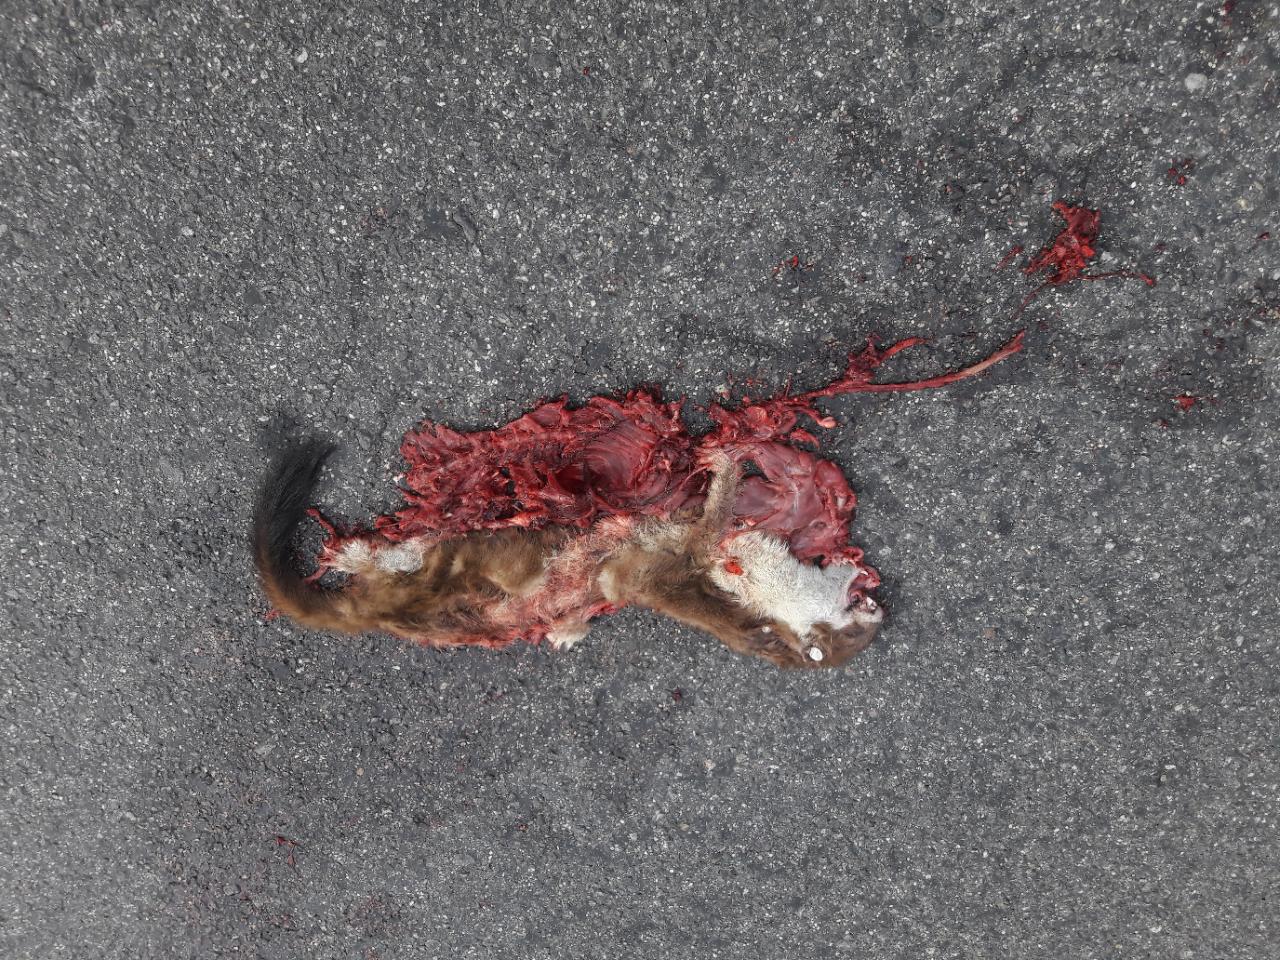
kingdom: Animalia
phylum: Chordata
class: Mammalia
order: Carnivora
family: Mustelidae
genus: Mustela
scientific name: Mustela erminea
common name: Stoat
